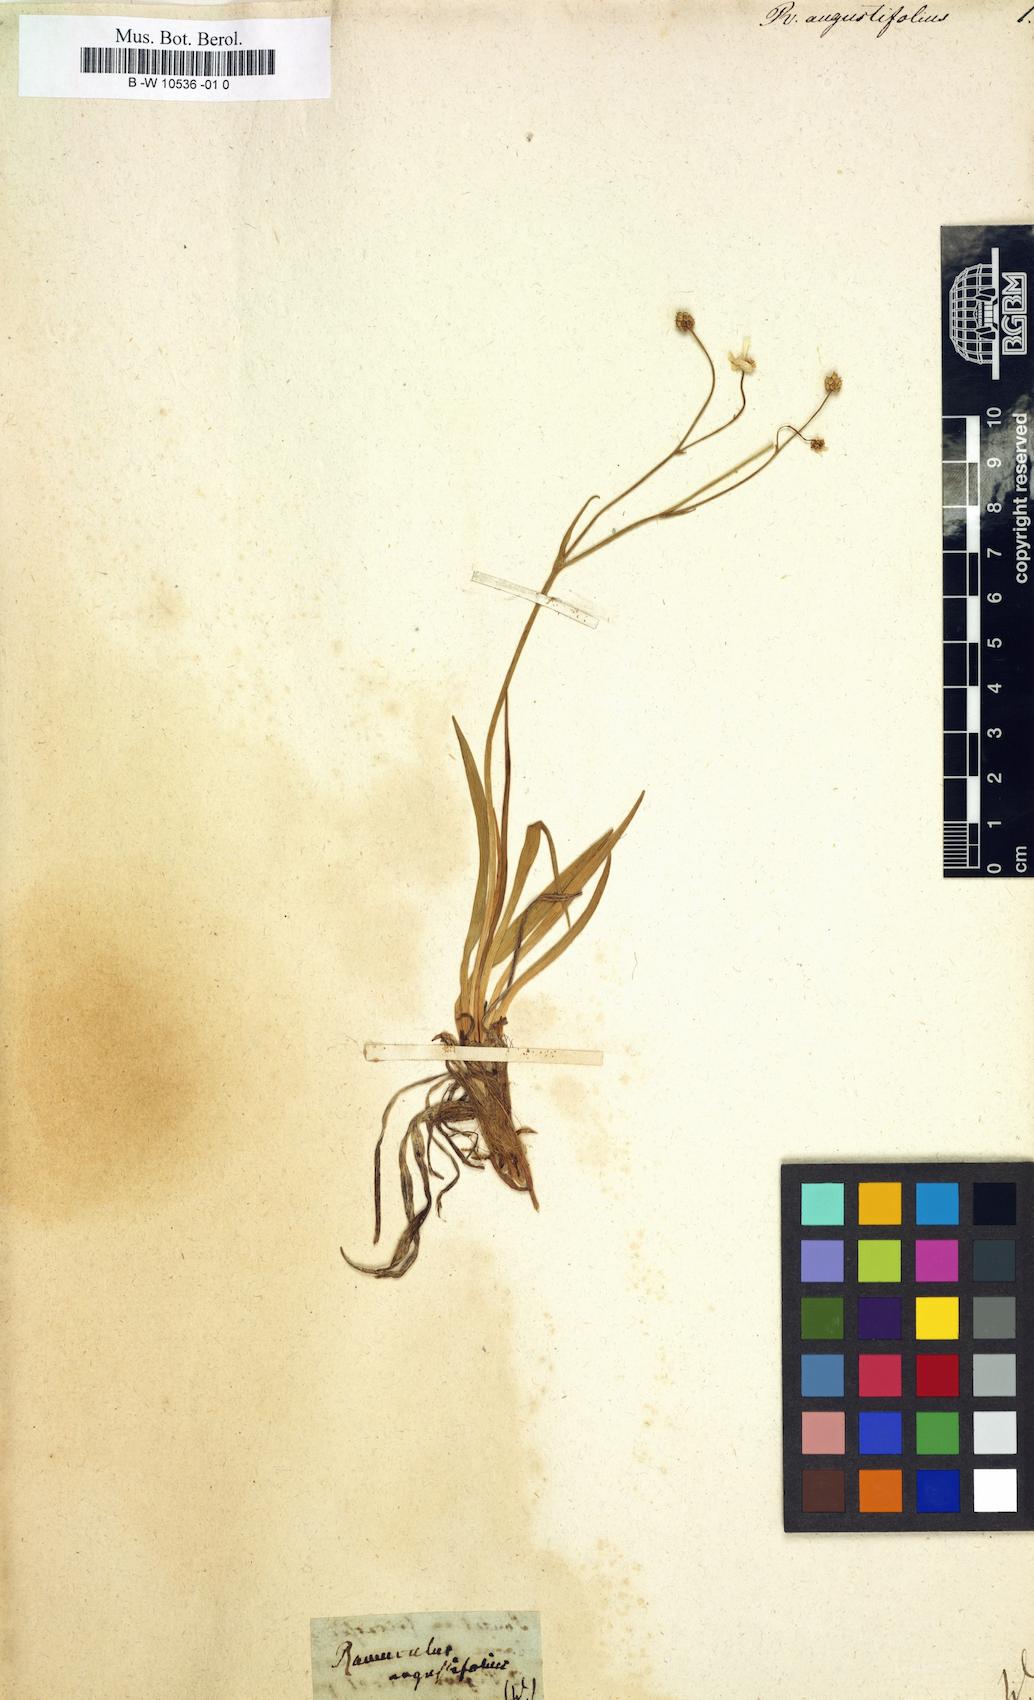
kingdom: Plantae
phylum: Tracheophyta
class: Magnoliopsida
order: Ranunculales
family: Ranunculaceae
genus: Ranunculus
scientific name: Ranunculus angustifolius
